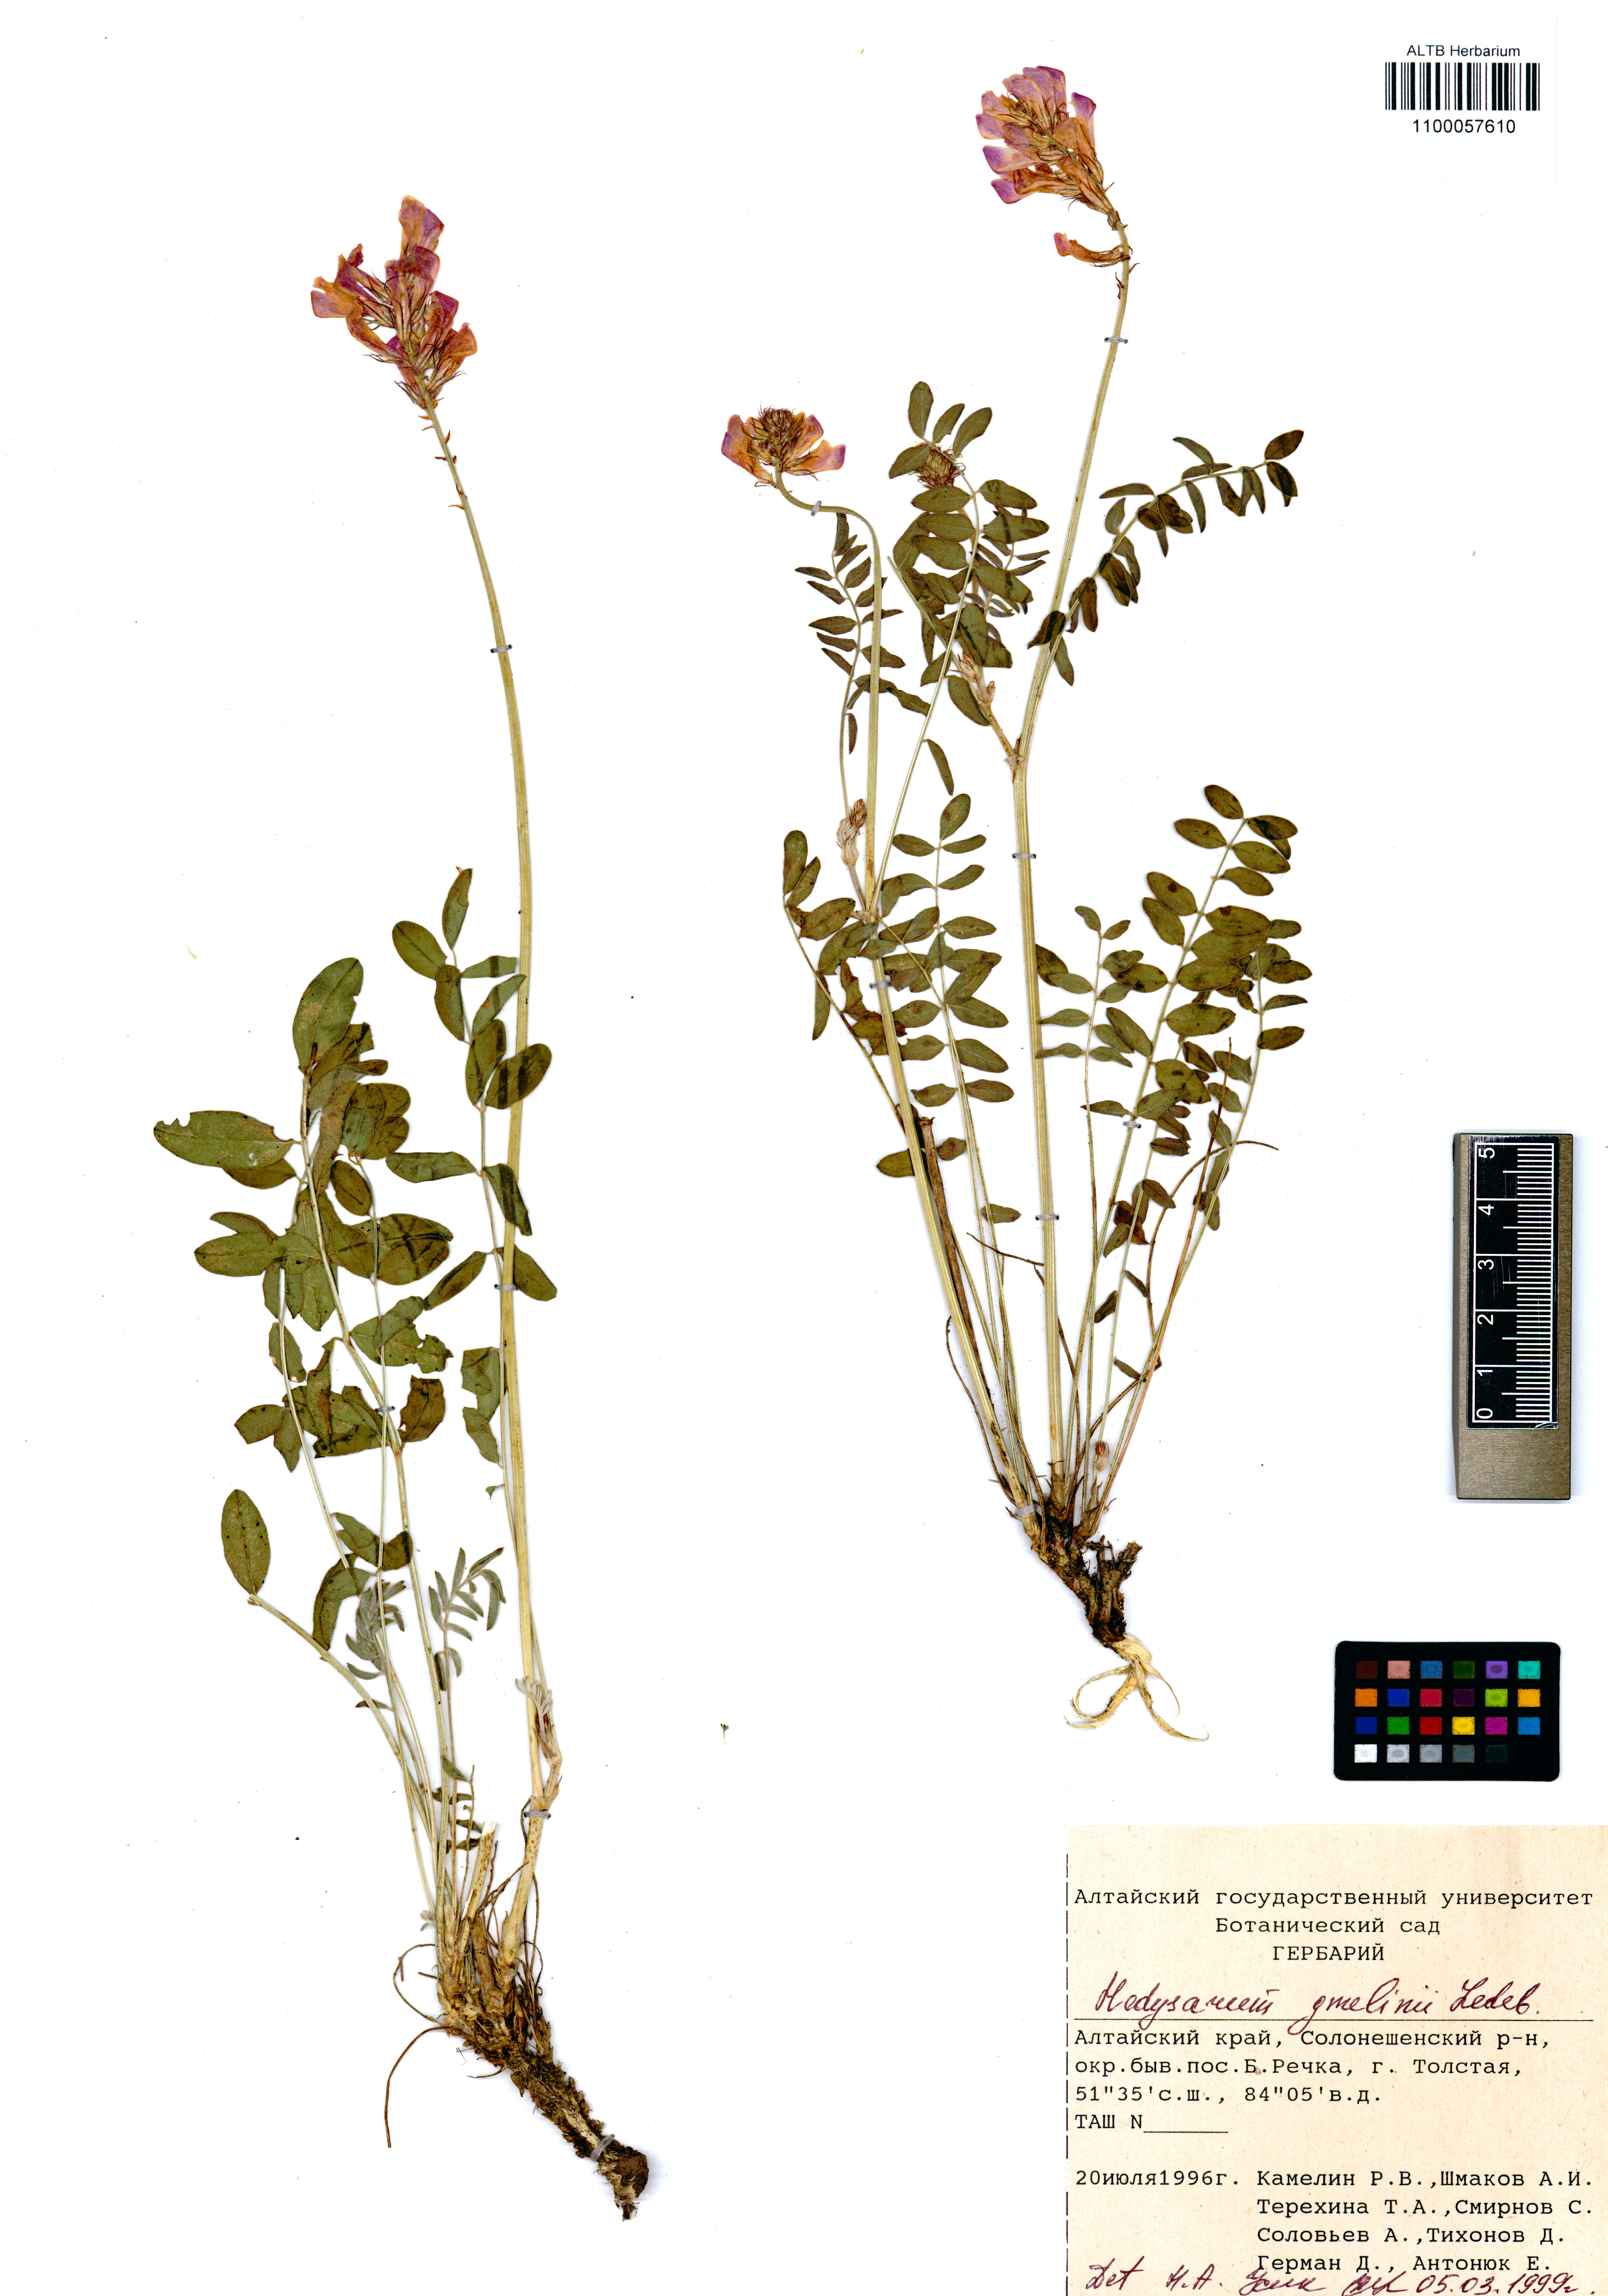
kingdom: Plantae
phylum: Tracheophyta
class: Magnoliopsida
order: Fabales
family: Fabaceae
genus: Hedysarum
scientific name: Hedysarum gmelinii
